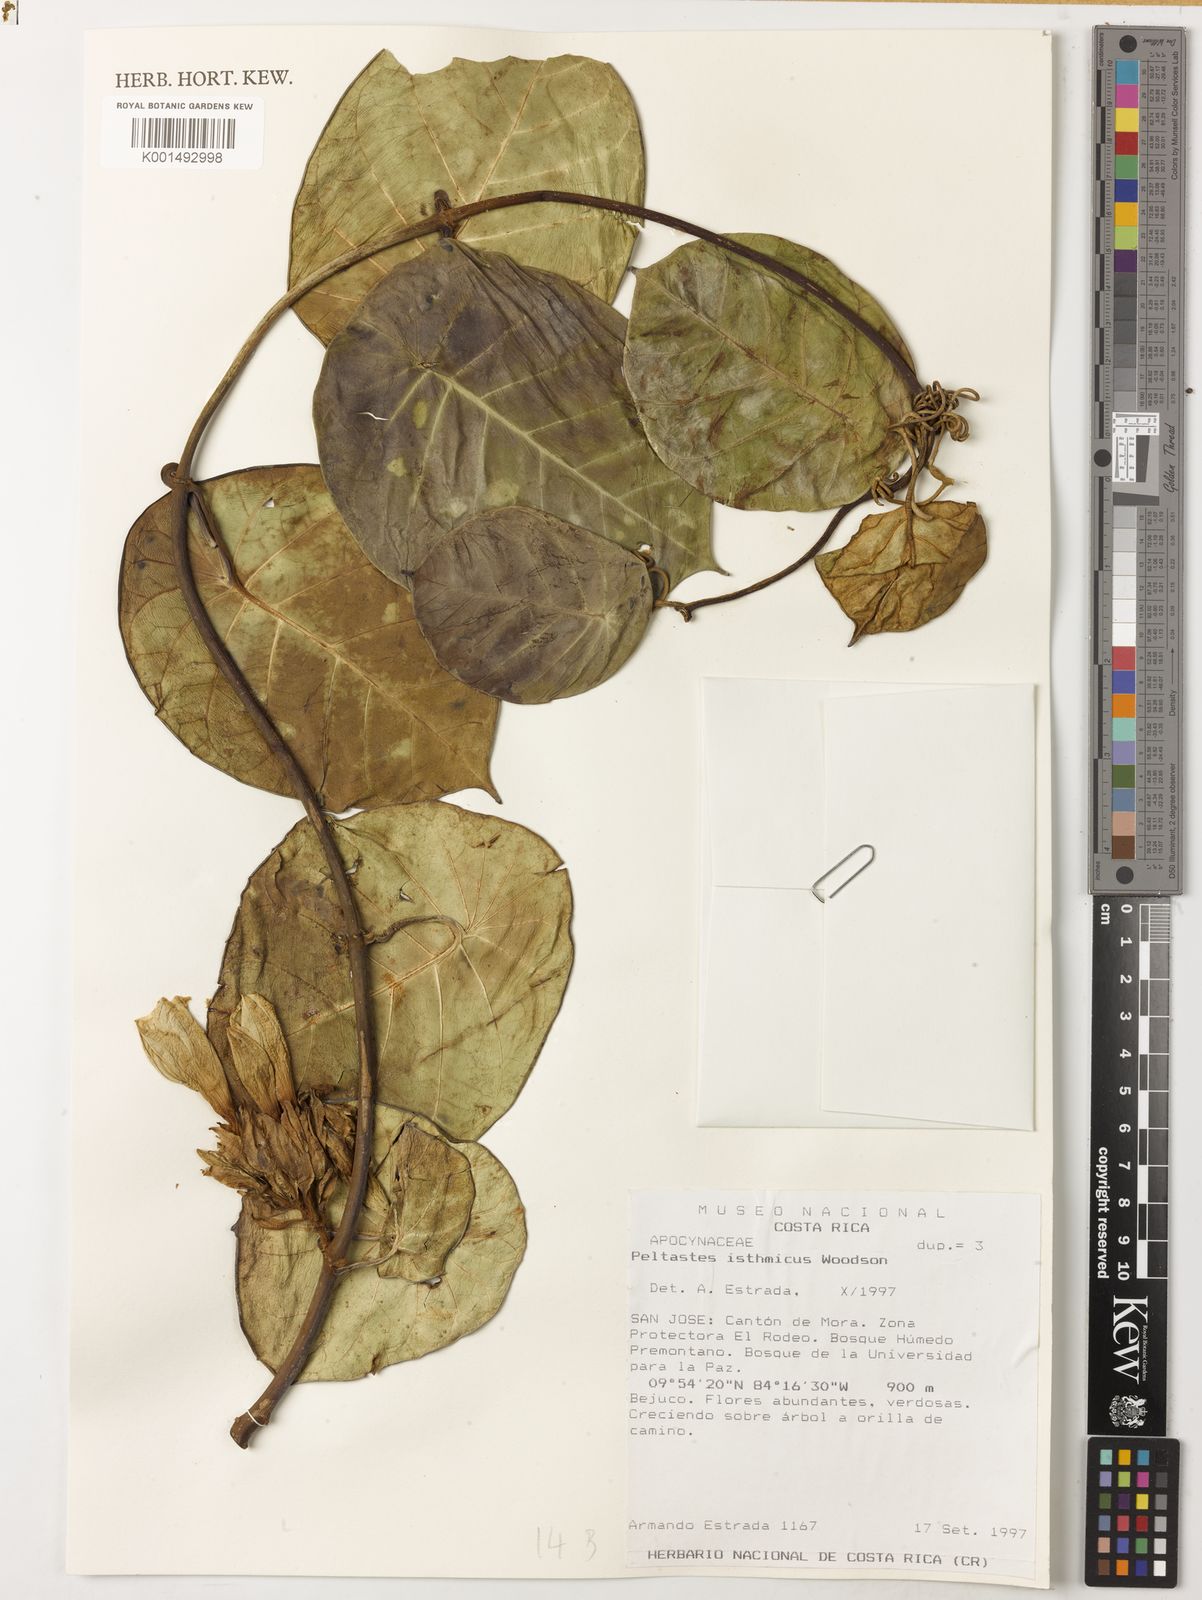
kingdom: Plantae
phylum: Tracheophyta
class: Magnoliopsida
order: Gentianales
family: Apocynaceae
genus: Macropharynx
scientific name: Macropharynx isthmica
